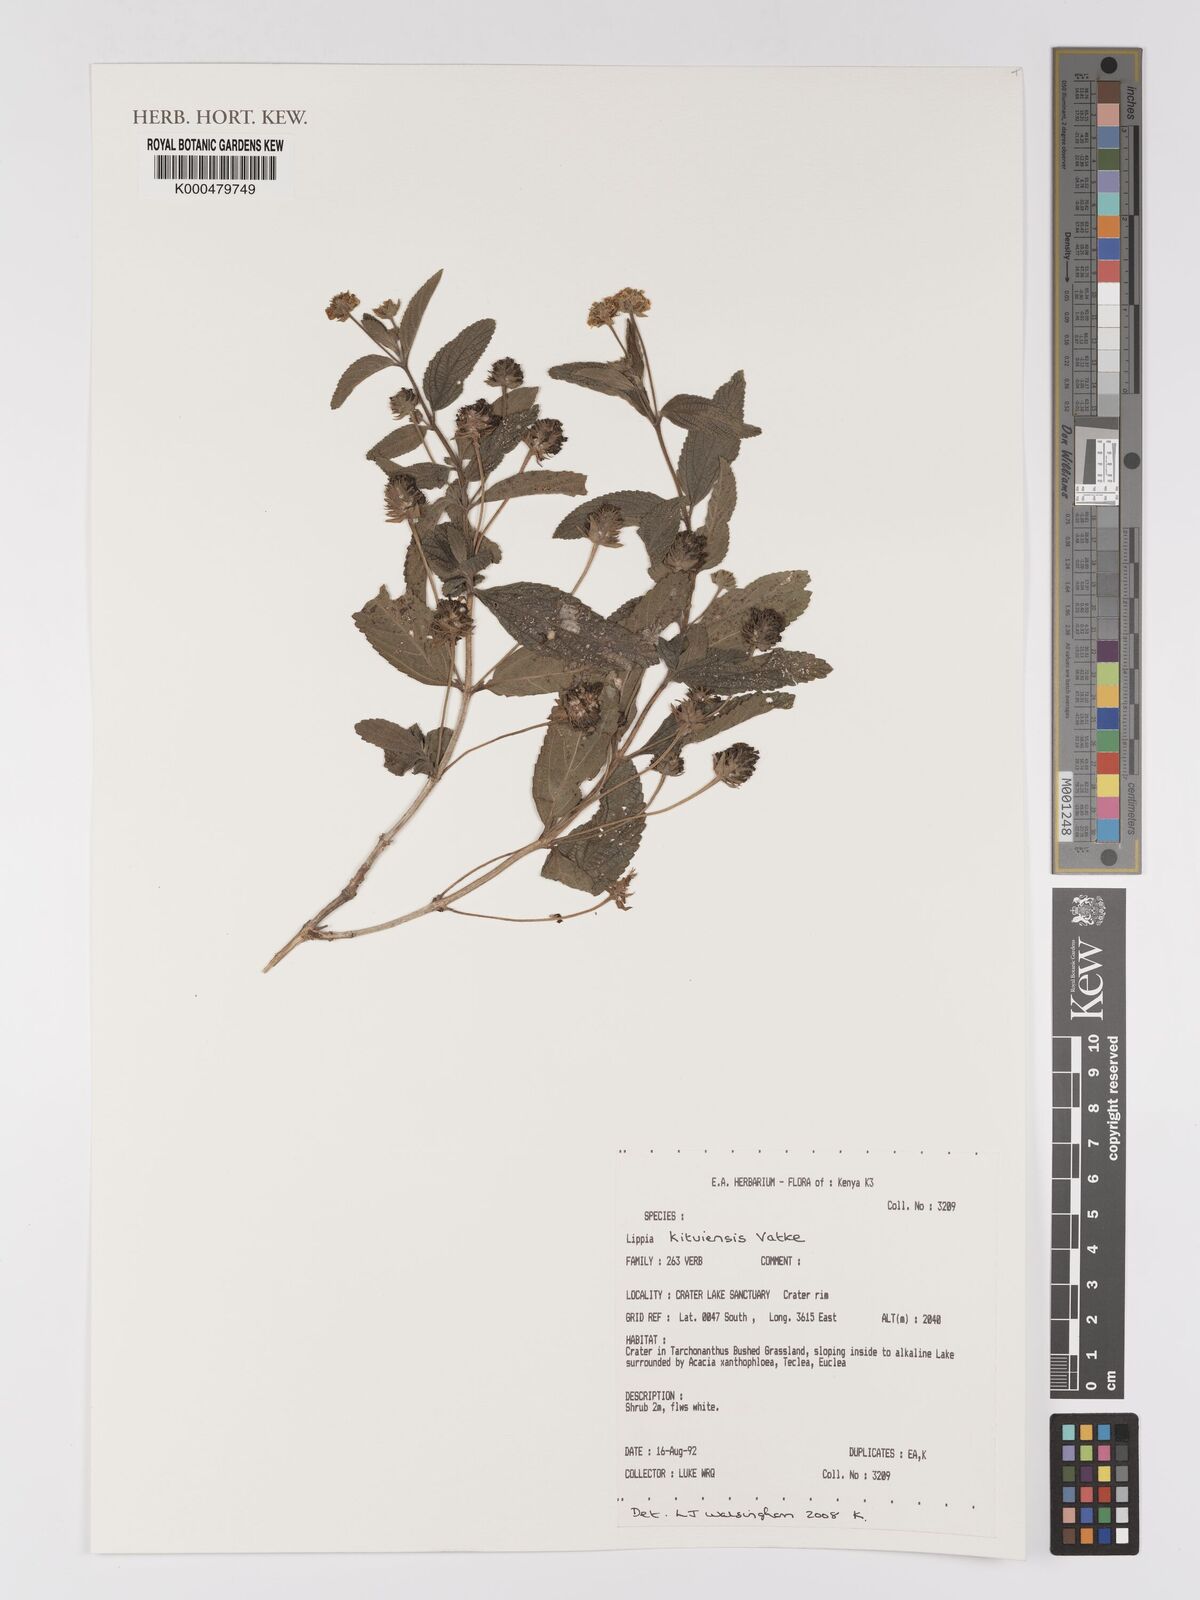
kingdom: Plantae
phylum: Tracheophyta
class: Magnoliopsida
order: Lamiales
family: Verbenaceae
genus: Lippia
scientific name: Lippia kituiensis
